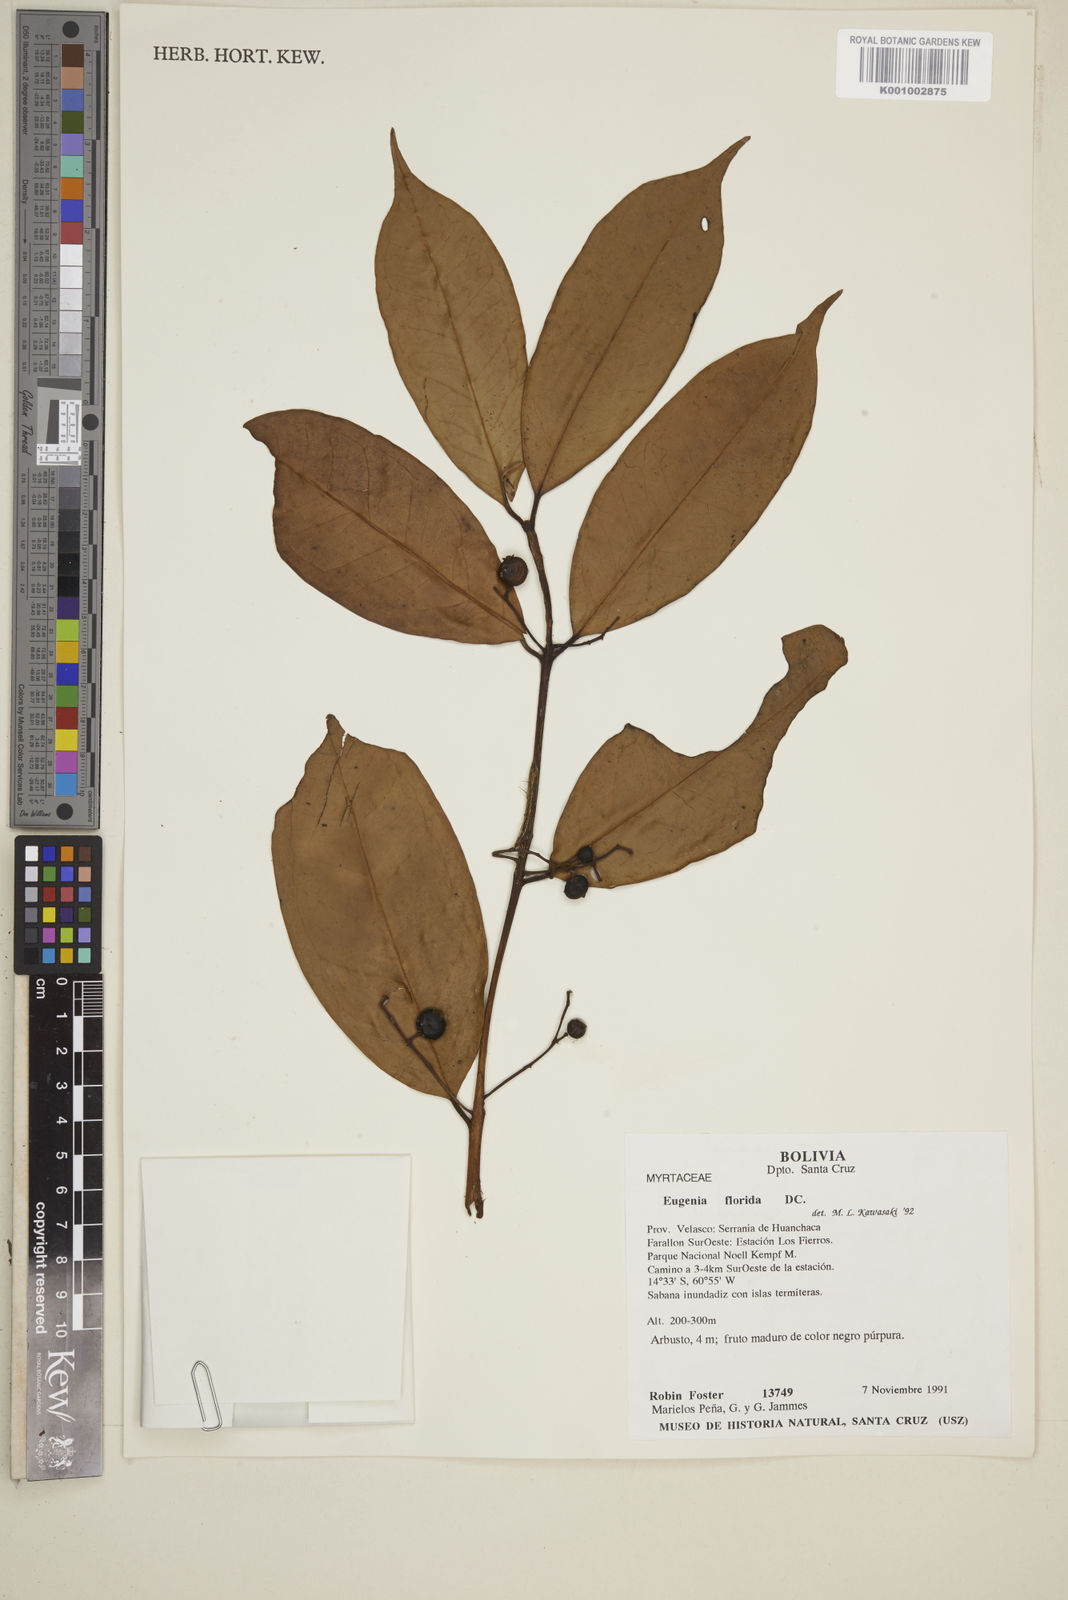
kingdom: Plantae
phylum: Tracheophyta
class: Magnoliopsida
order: Myrtales
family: Myrtaceae
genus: Eugenia
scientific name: Eugenia florida
